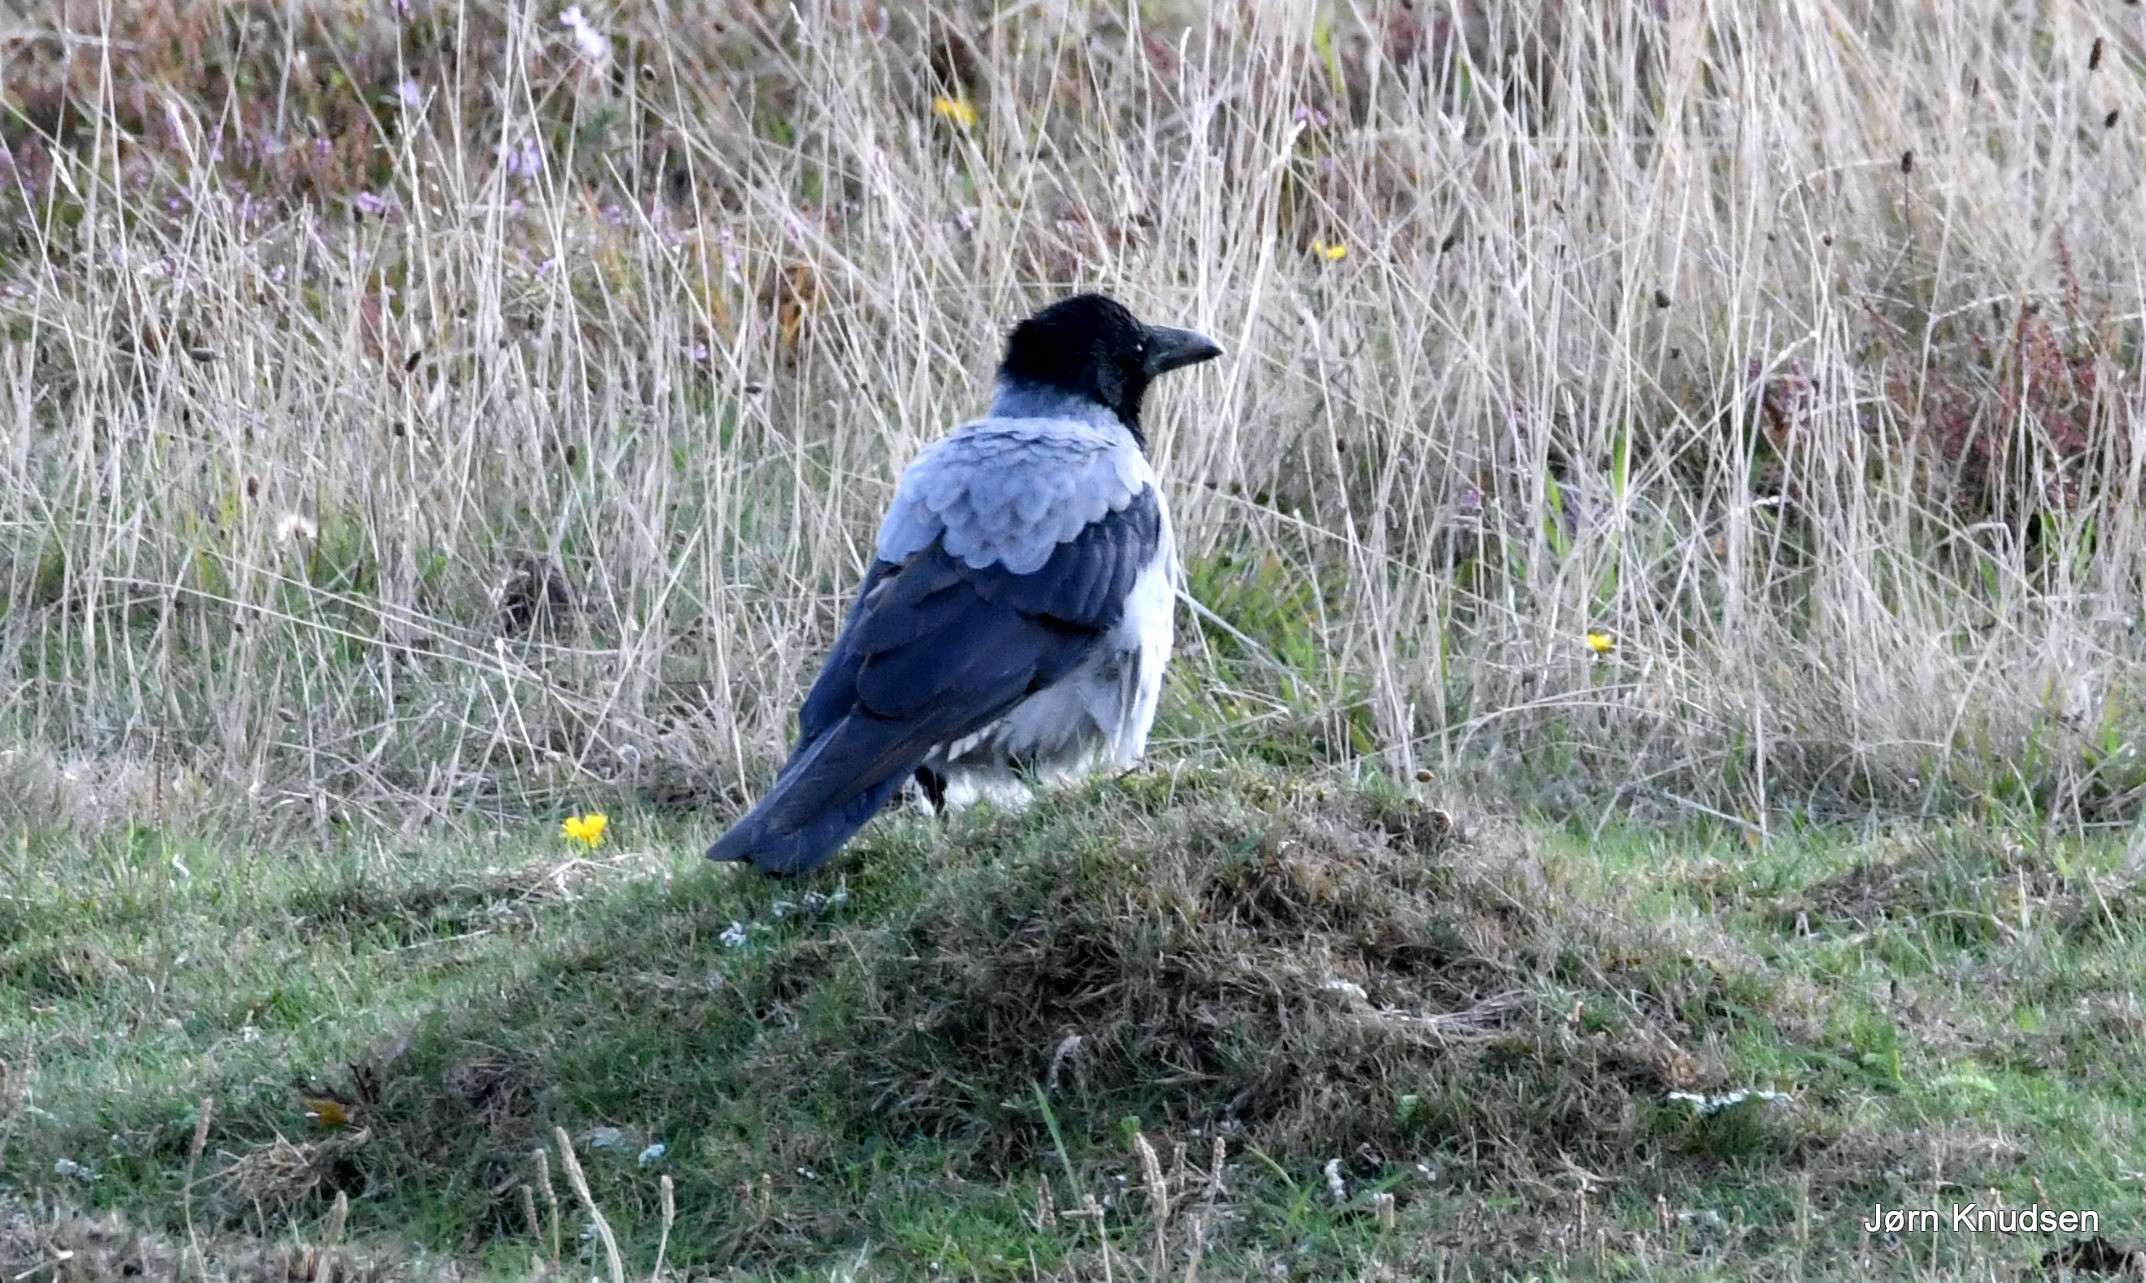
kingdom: Animalia
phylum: Chordata
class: Aves
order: Passeriformes
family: Corvidae
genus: Corvus
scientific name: Corvus cornix
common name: Gråkrage
